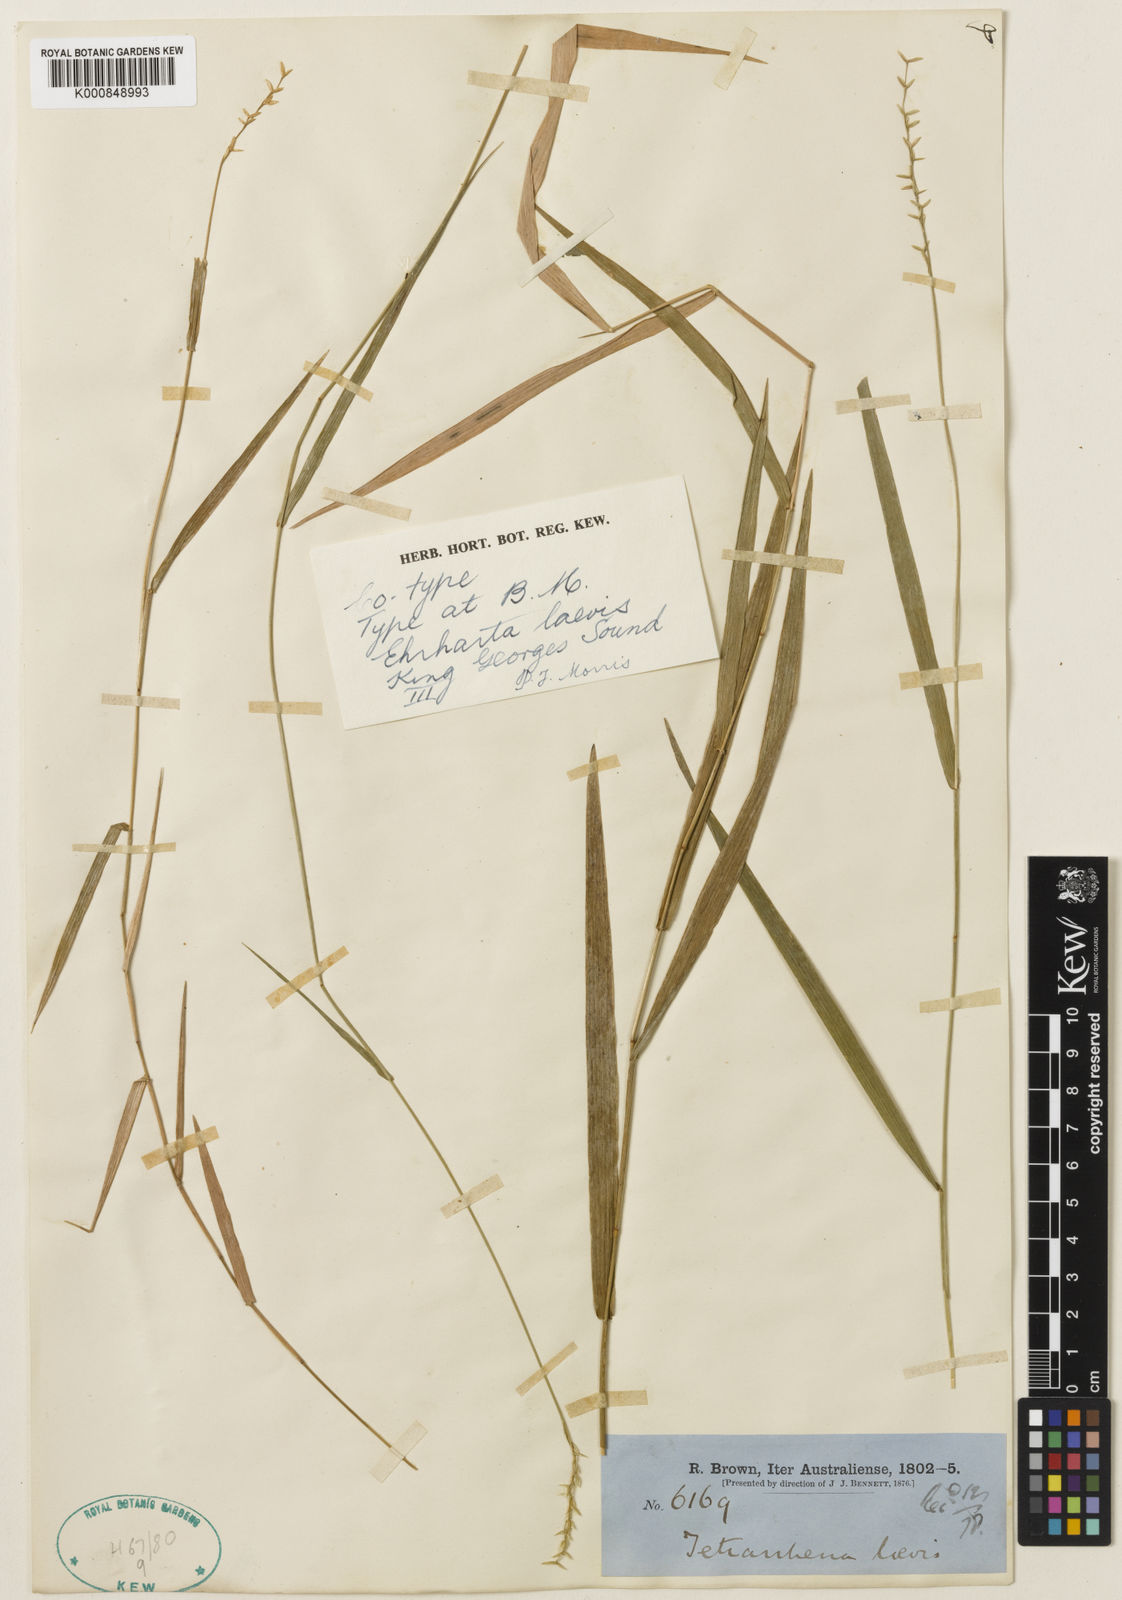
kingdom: Plantae
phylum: Tracheophyta
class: Liliopsida
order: Poales
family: Poaceae
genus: Tetrarrhena
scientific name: Tetrarrhena laevis
